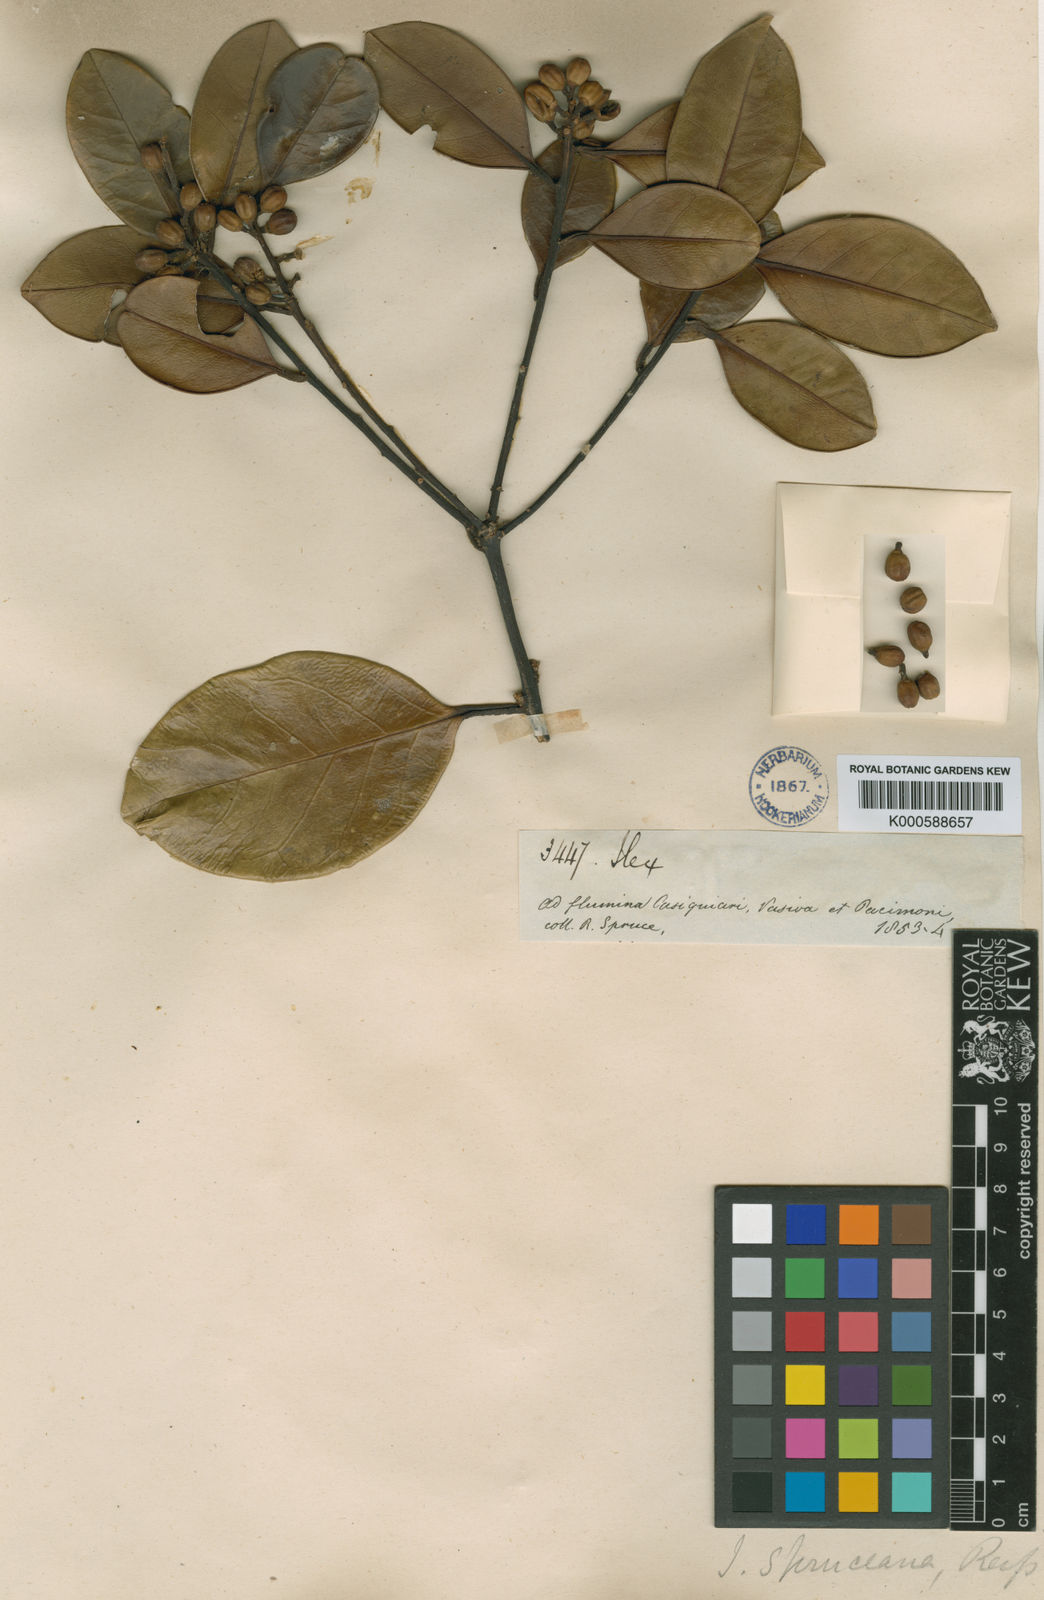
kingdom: Plantae
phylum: Tracheophyta
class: Magnoliopsida
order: Aquifoliales
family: Aquifoliaceae
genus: Ilex
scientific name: Ilex spruceana
